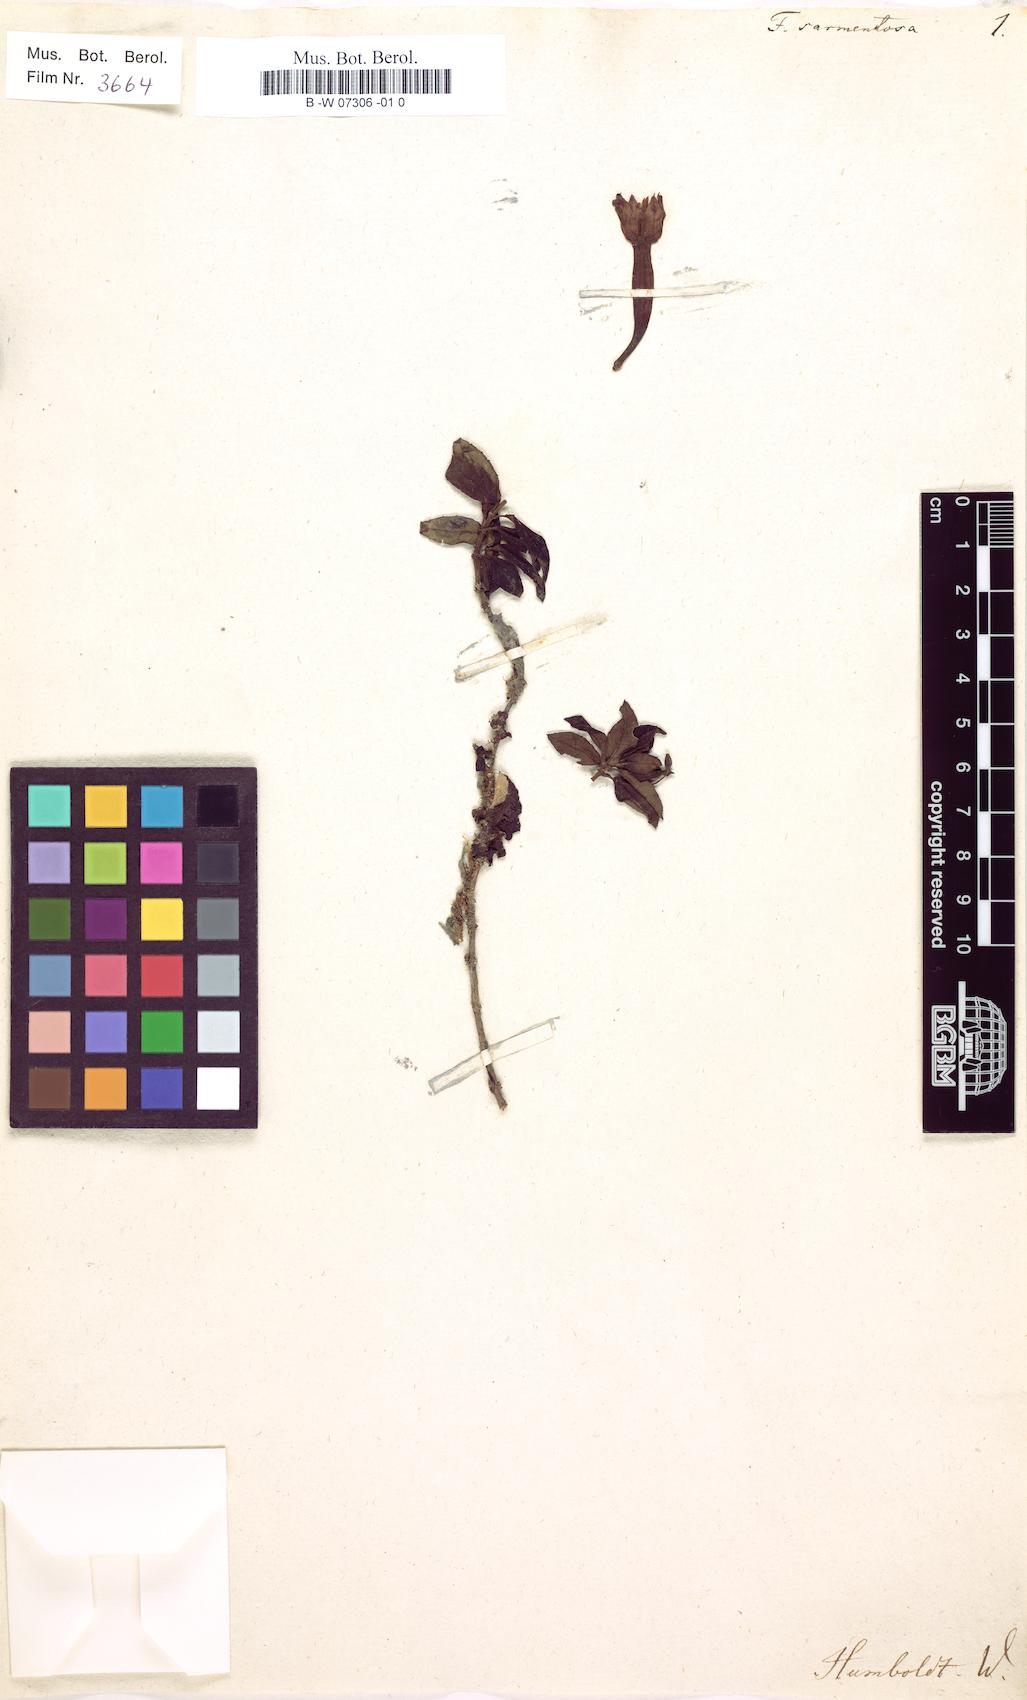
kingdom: Plantae
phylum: Tracheophyta
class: Magnoliopsida
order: Myrtales
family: Onagraceae
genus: Fuchsia
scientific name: Fuchsia
